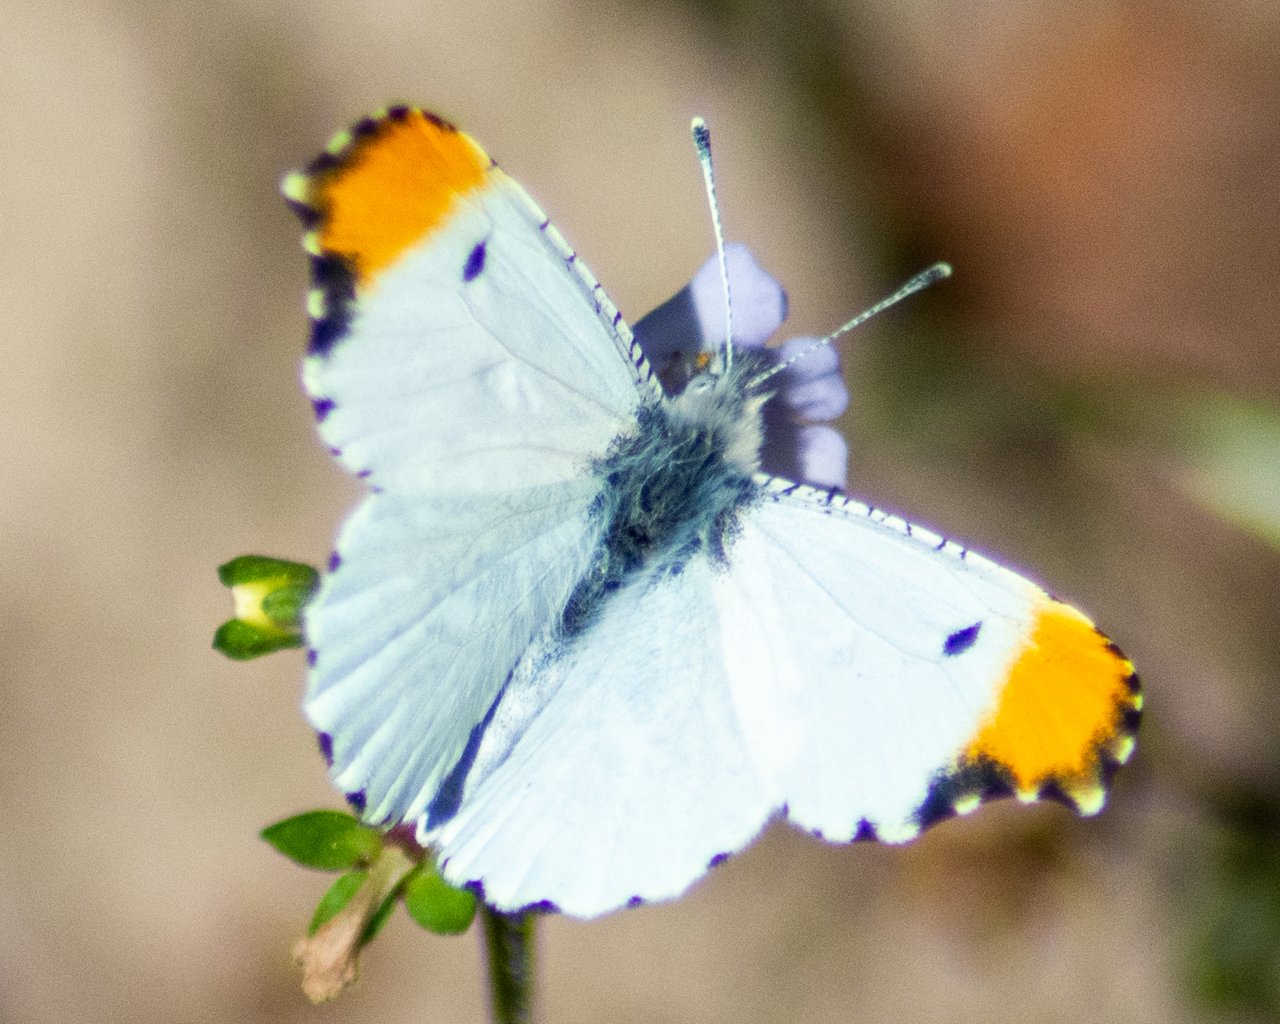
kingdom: Animalia
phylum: Arthropoda
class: Insecta
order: Lepidoptera
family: Pieridae
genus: Anthocharis
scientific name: Anthocharis midea
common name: Falcate Orangetip
